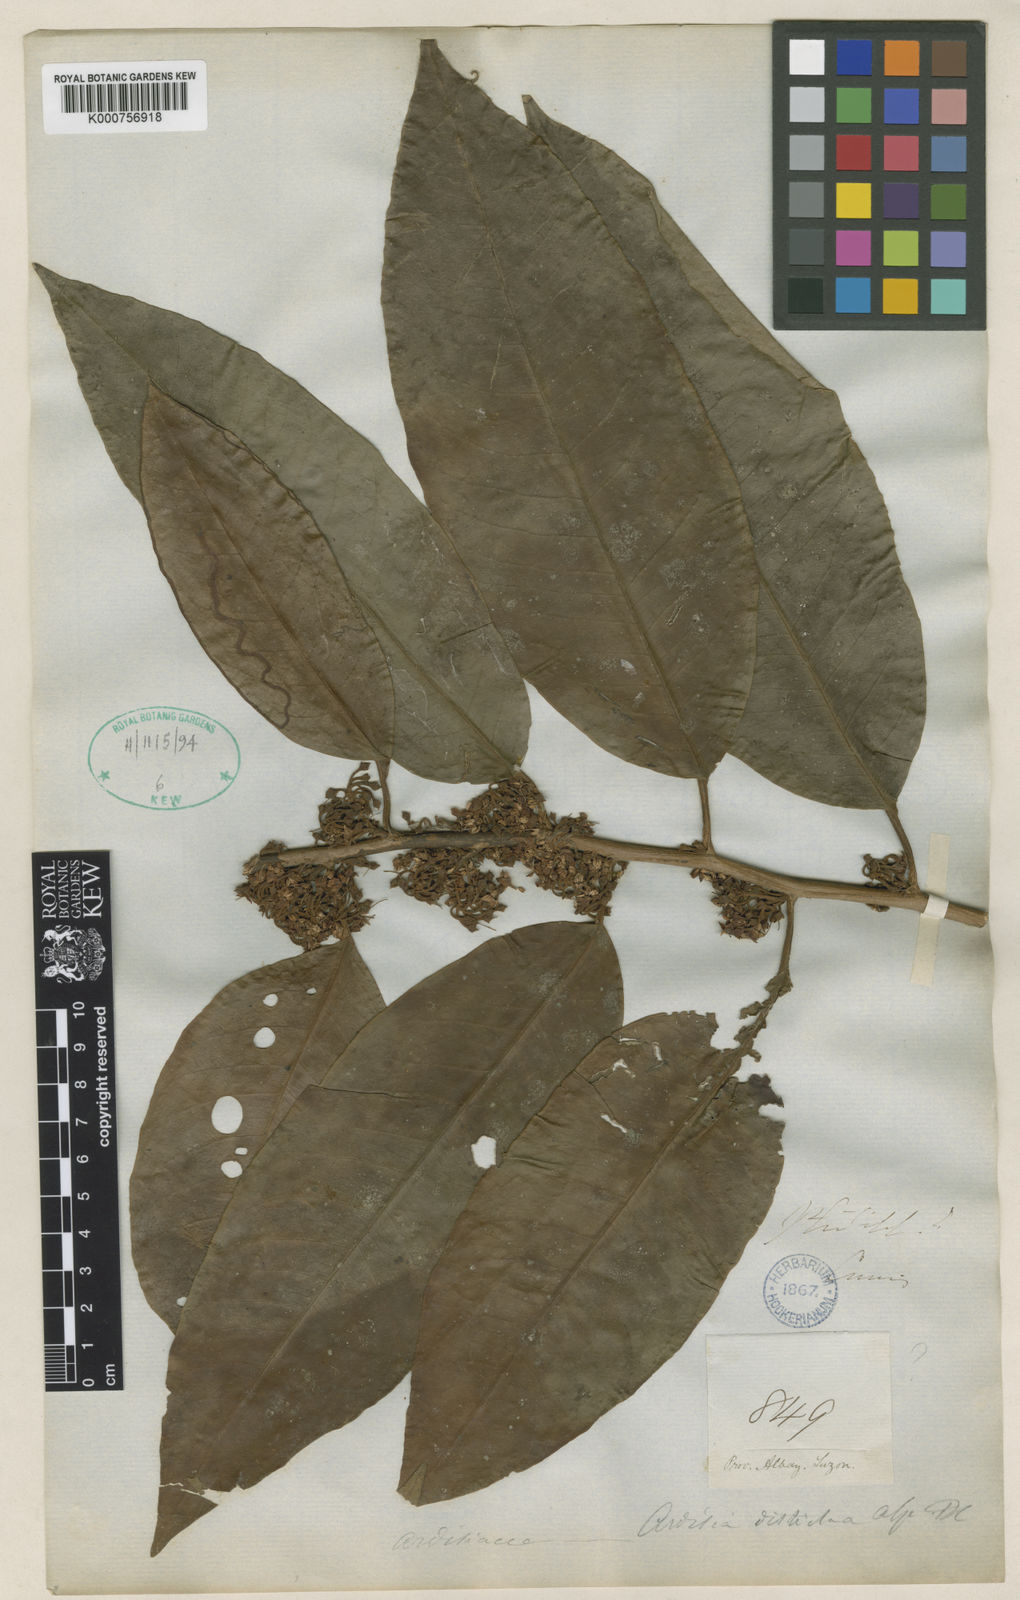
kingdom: Plantae
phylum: Tracheophyta
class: Magnoliopsida
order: Ericales
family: Primulaceae
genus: Ardisia
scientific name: Ardisia tomentosa
